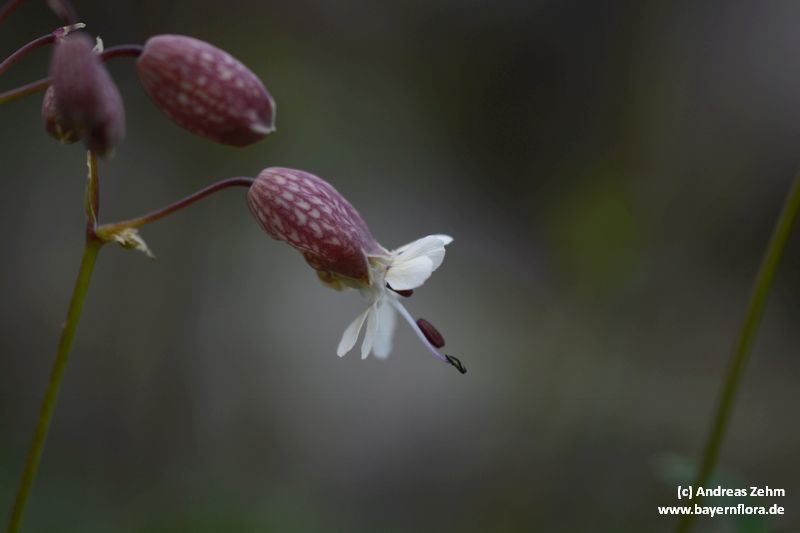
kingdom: Plantae
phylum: Tracheophyta
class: Magnoliopsida
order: Caryophyllales
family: Caryophyllaceae
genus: Silene
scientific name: Silene glareosa
